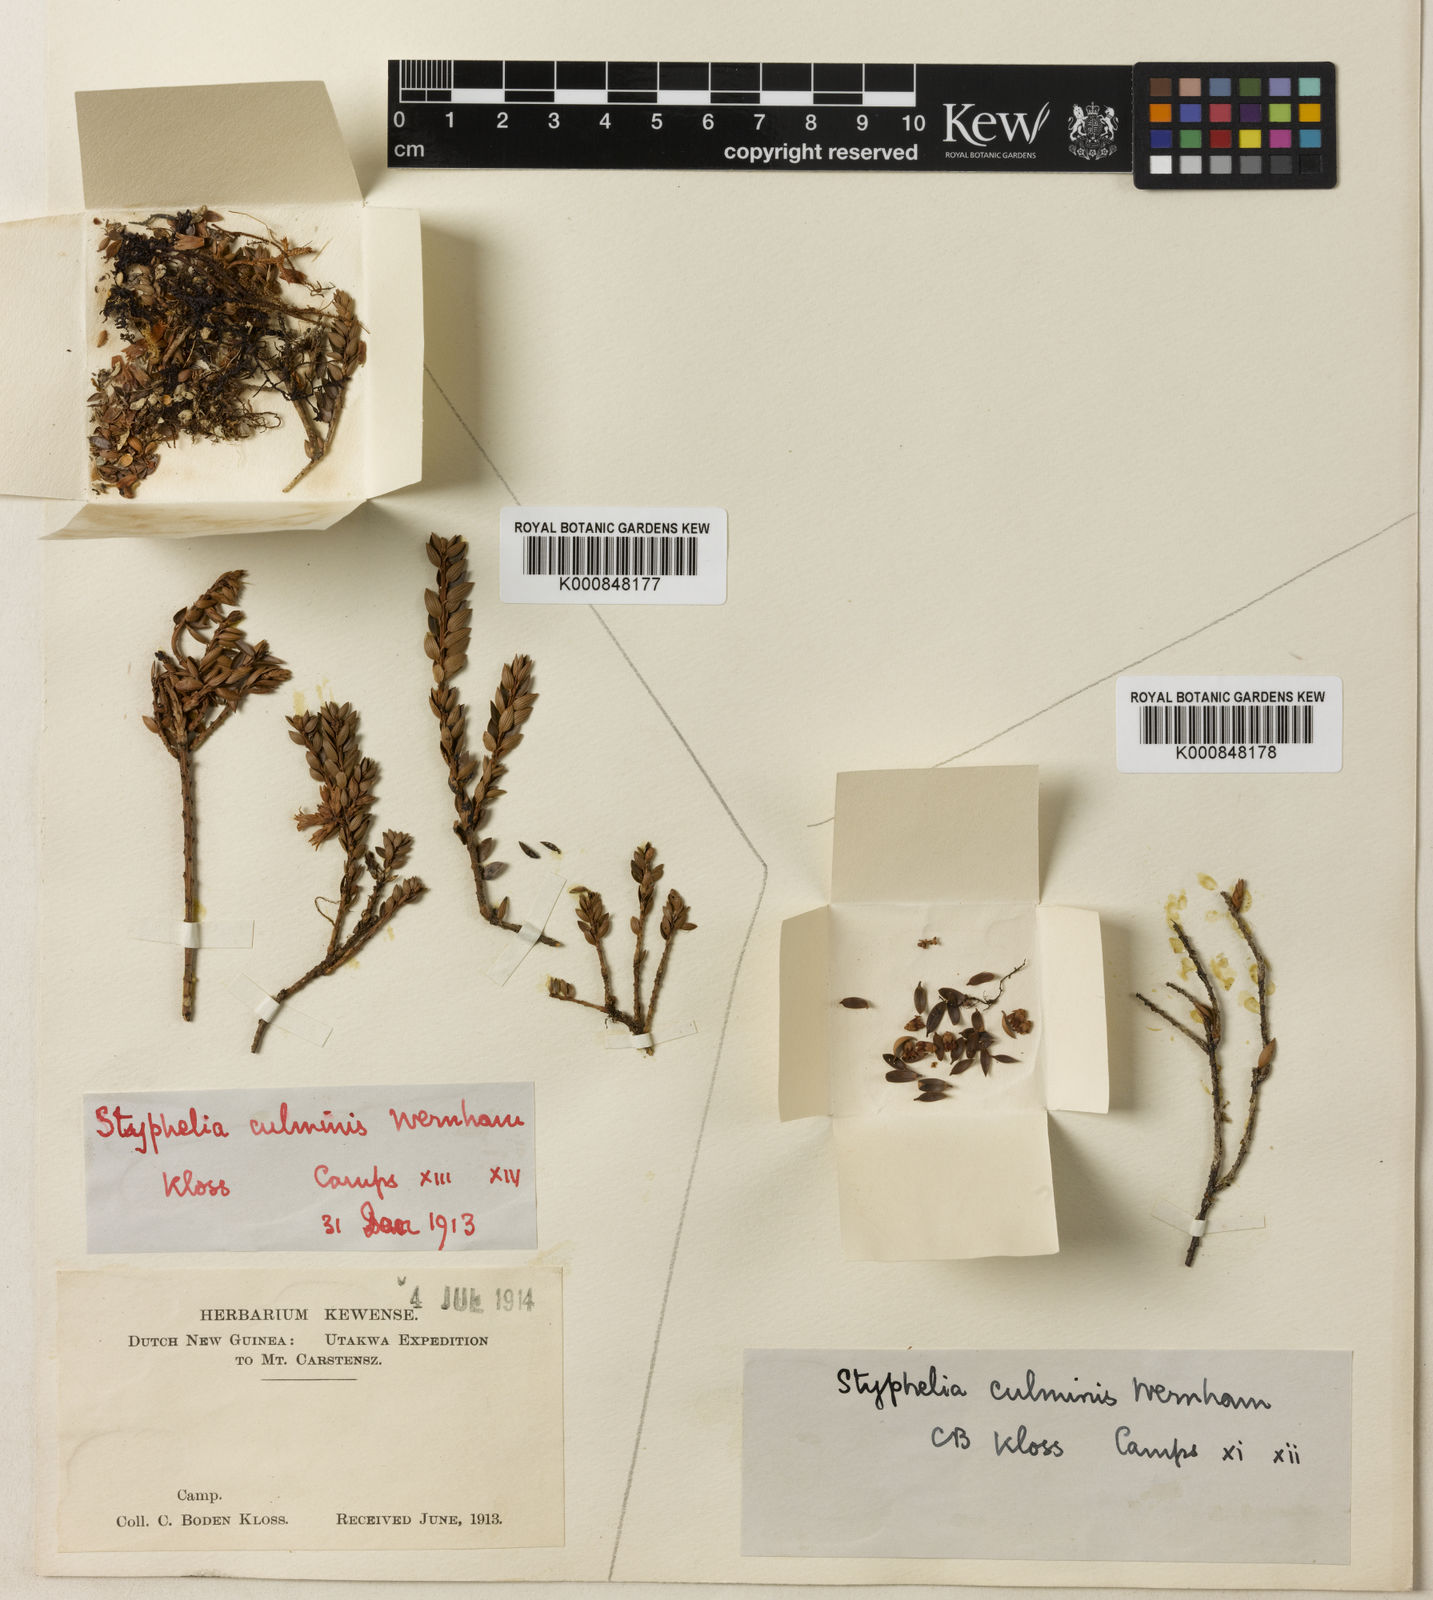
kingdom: Plantae
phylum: Tracheophyta
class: Magnoliopsida
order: Ericales
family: Ericaceae
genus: Trochocarpa
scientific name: Trochocarpa
